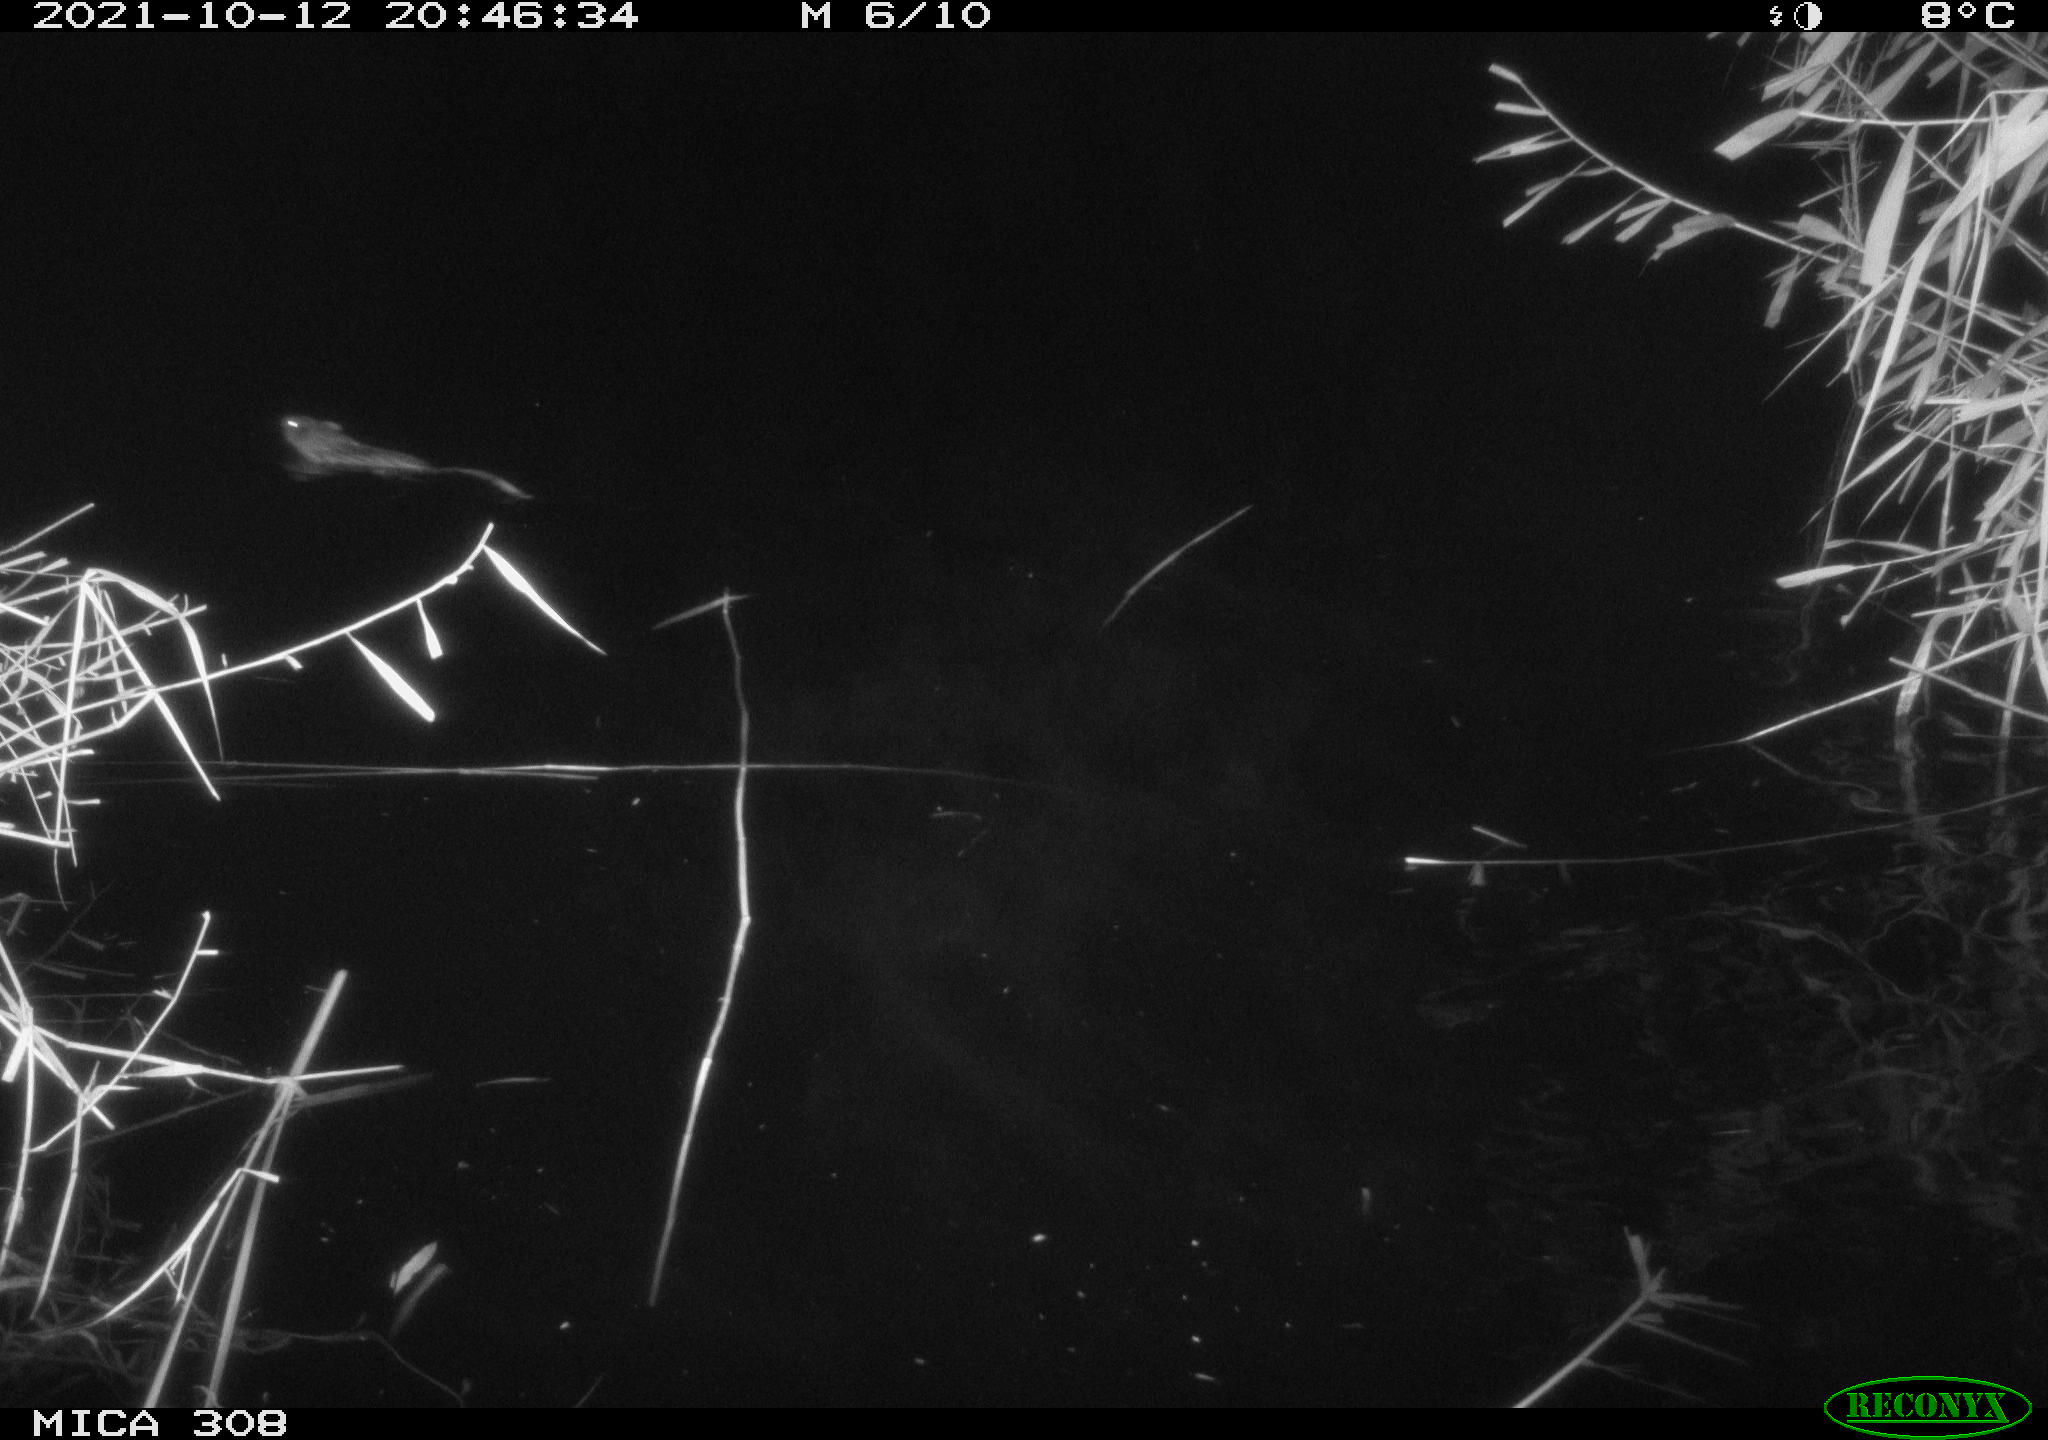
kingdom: Animalia
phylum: Chordata
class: Mammalia
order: Rodentia
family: Cricetidae
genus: Ondatra
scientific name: Ondatra zibethicus
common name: Muskrat
